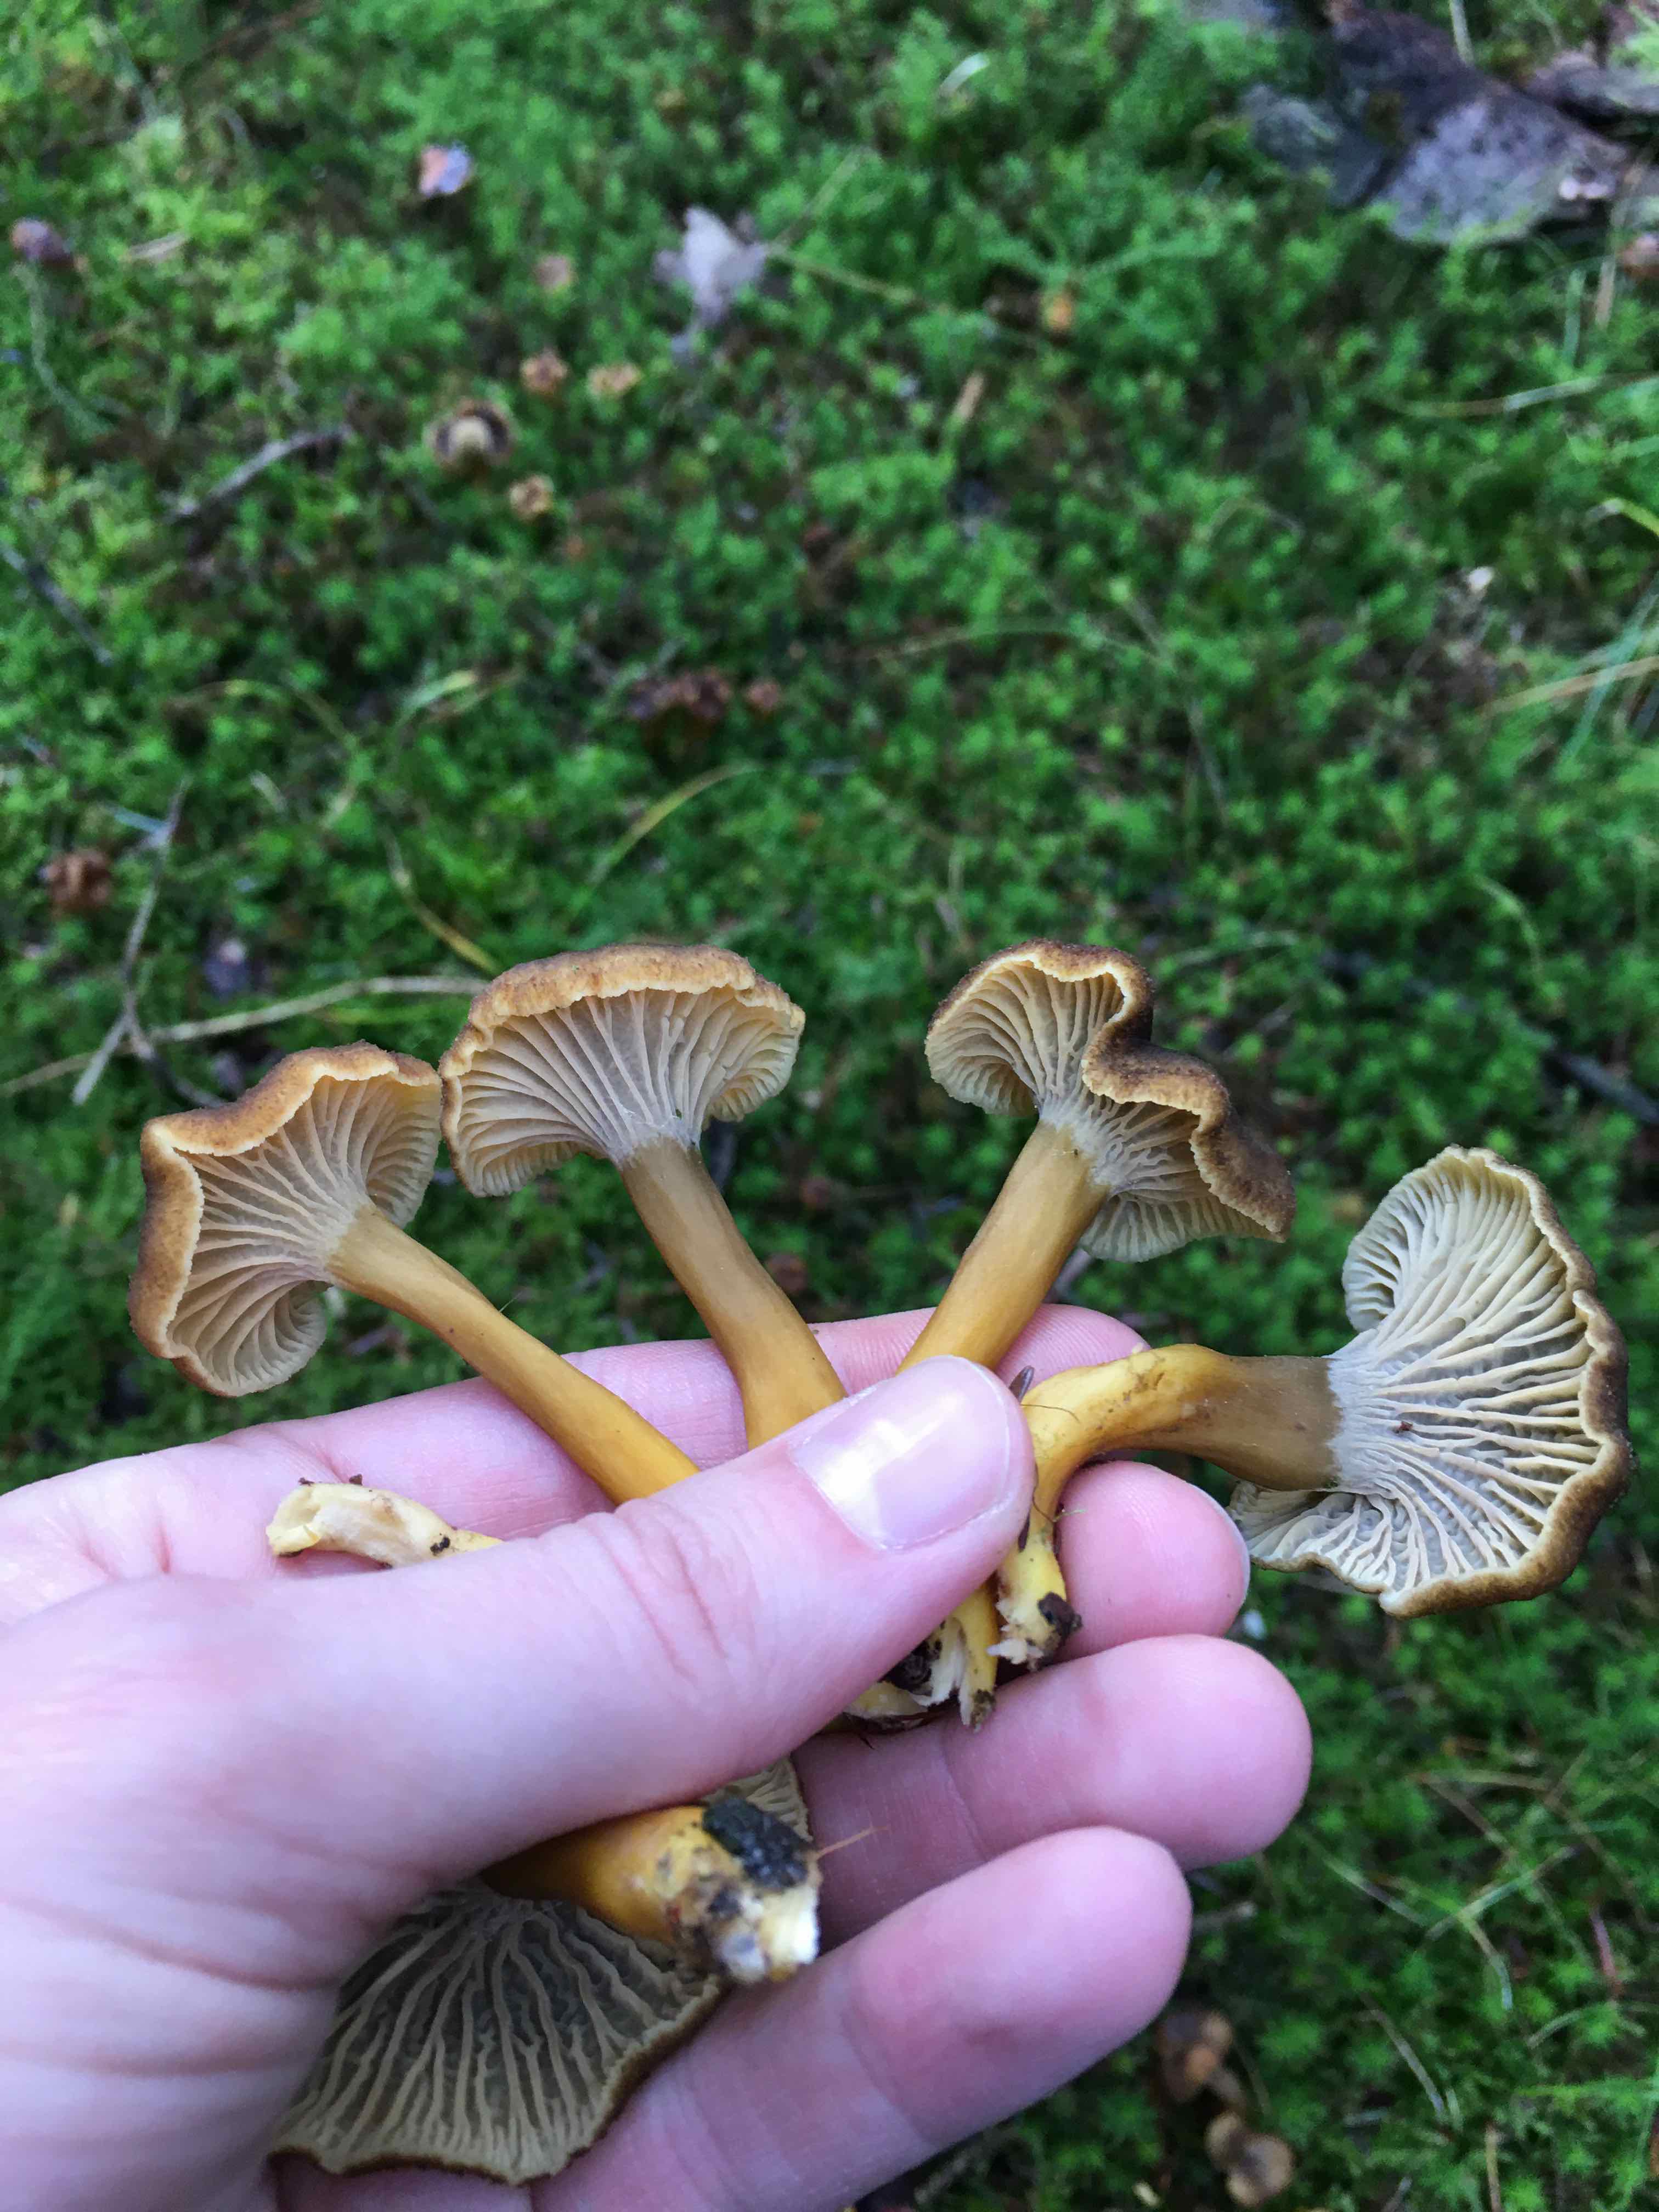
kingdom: Fungi
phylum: Basidiomycota
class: Agaricomycetes
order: Cantharellales
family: Hydnaceae
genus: Craterellus
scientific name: Craterellus tubaeformis
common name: tragt-kantarel
